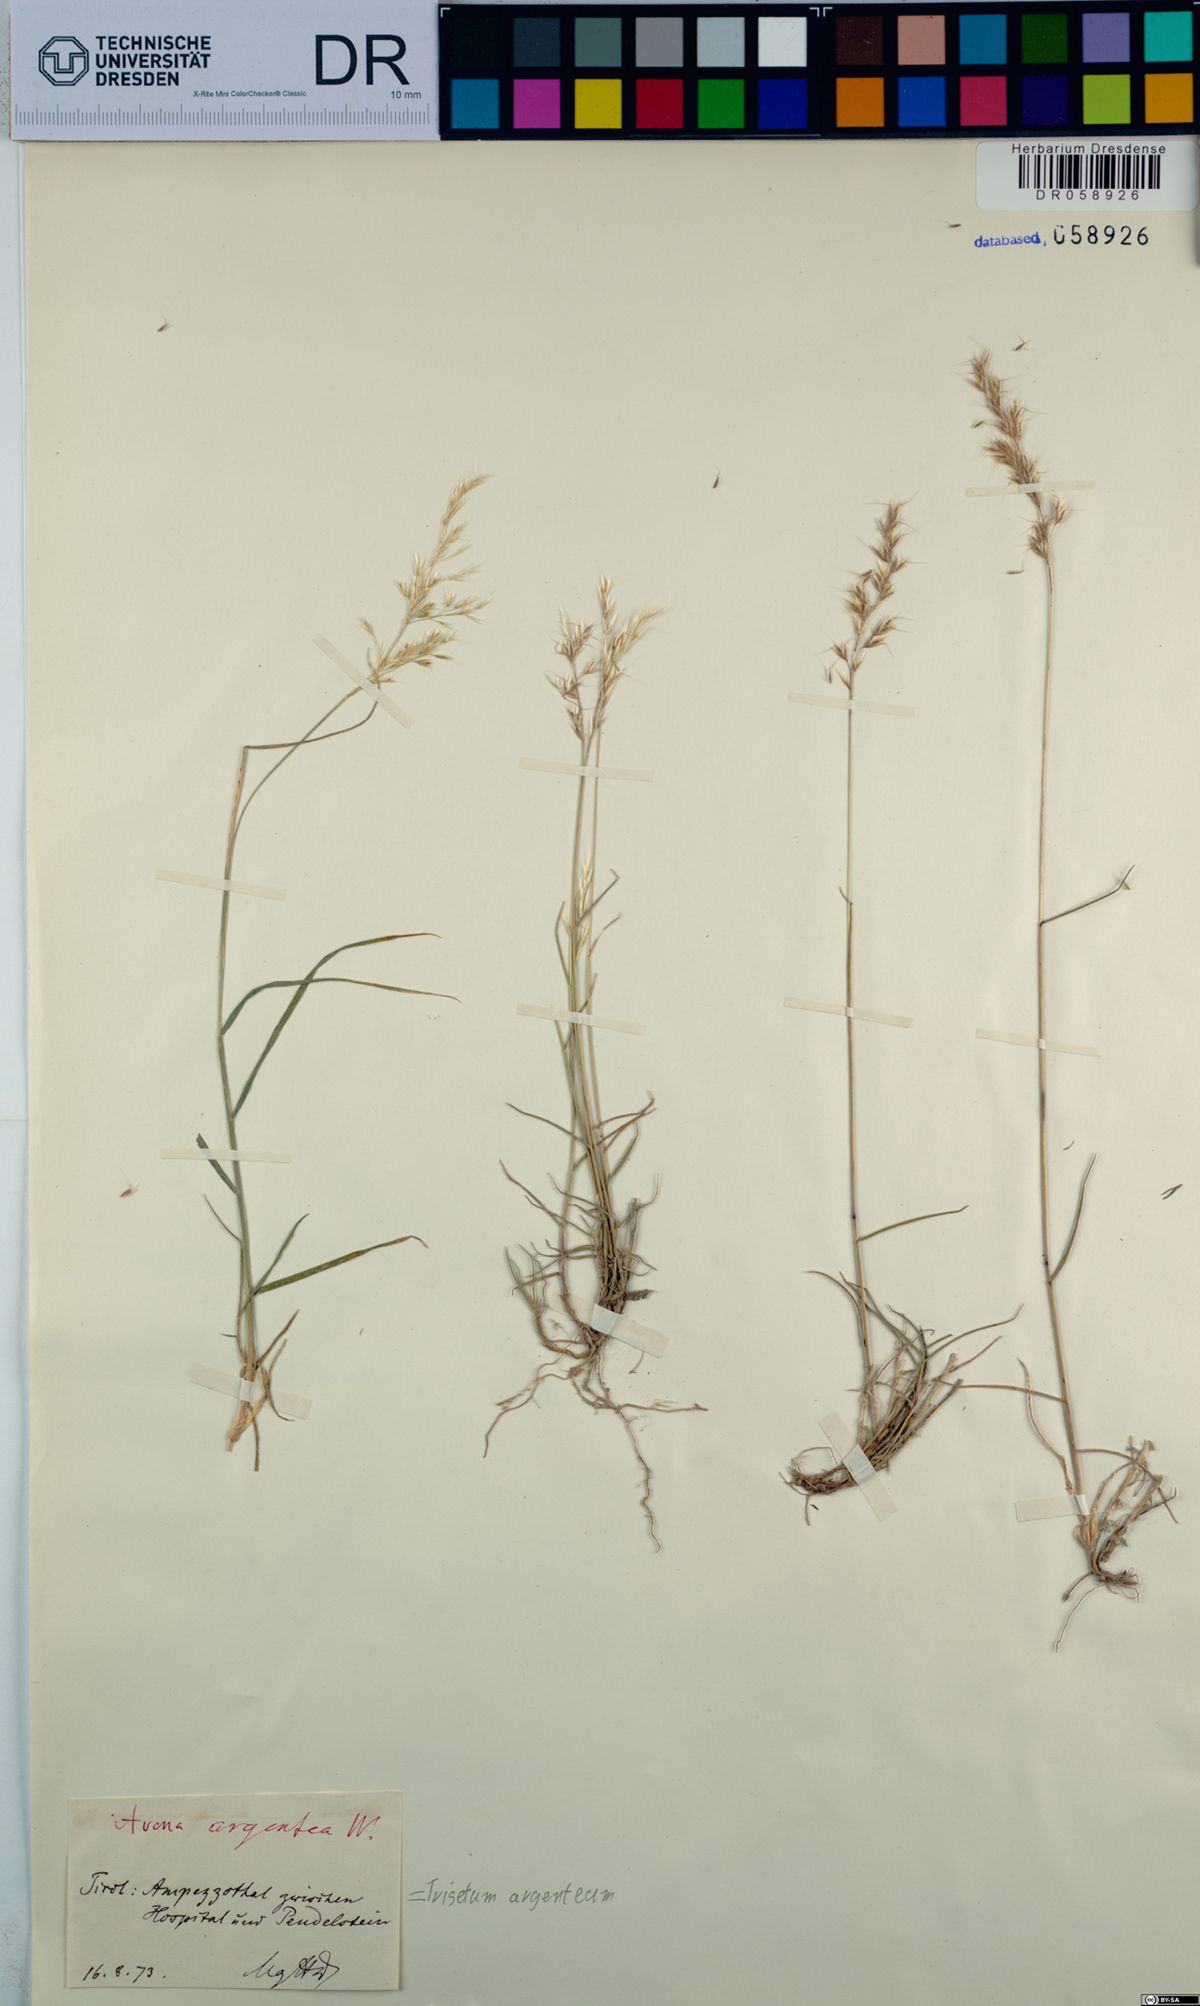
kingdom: Plantae
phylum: Tracheophyta
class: Liliopsida
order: Poales
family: Poaceae
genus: Trisetum
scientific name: Trisetum argenteum
